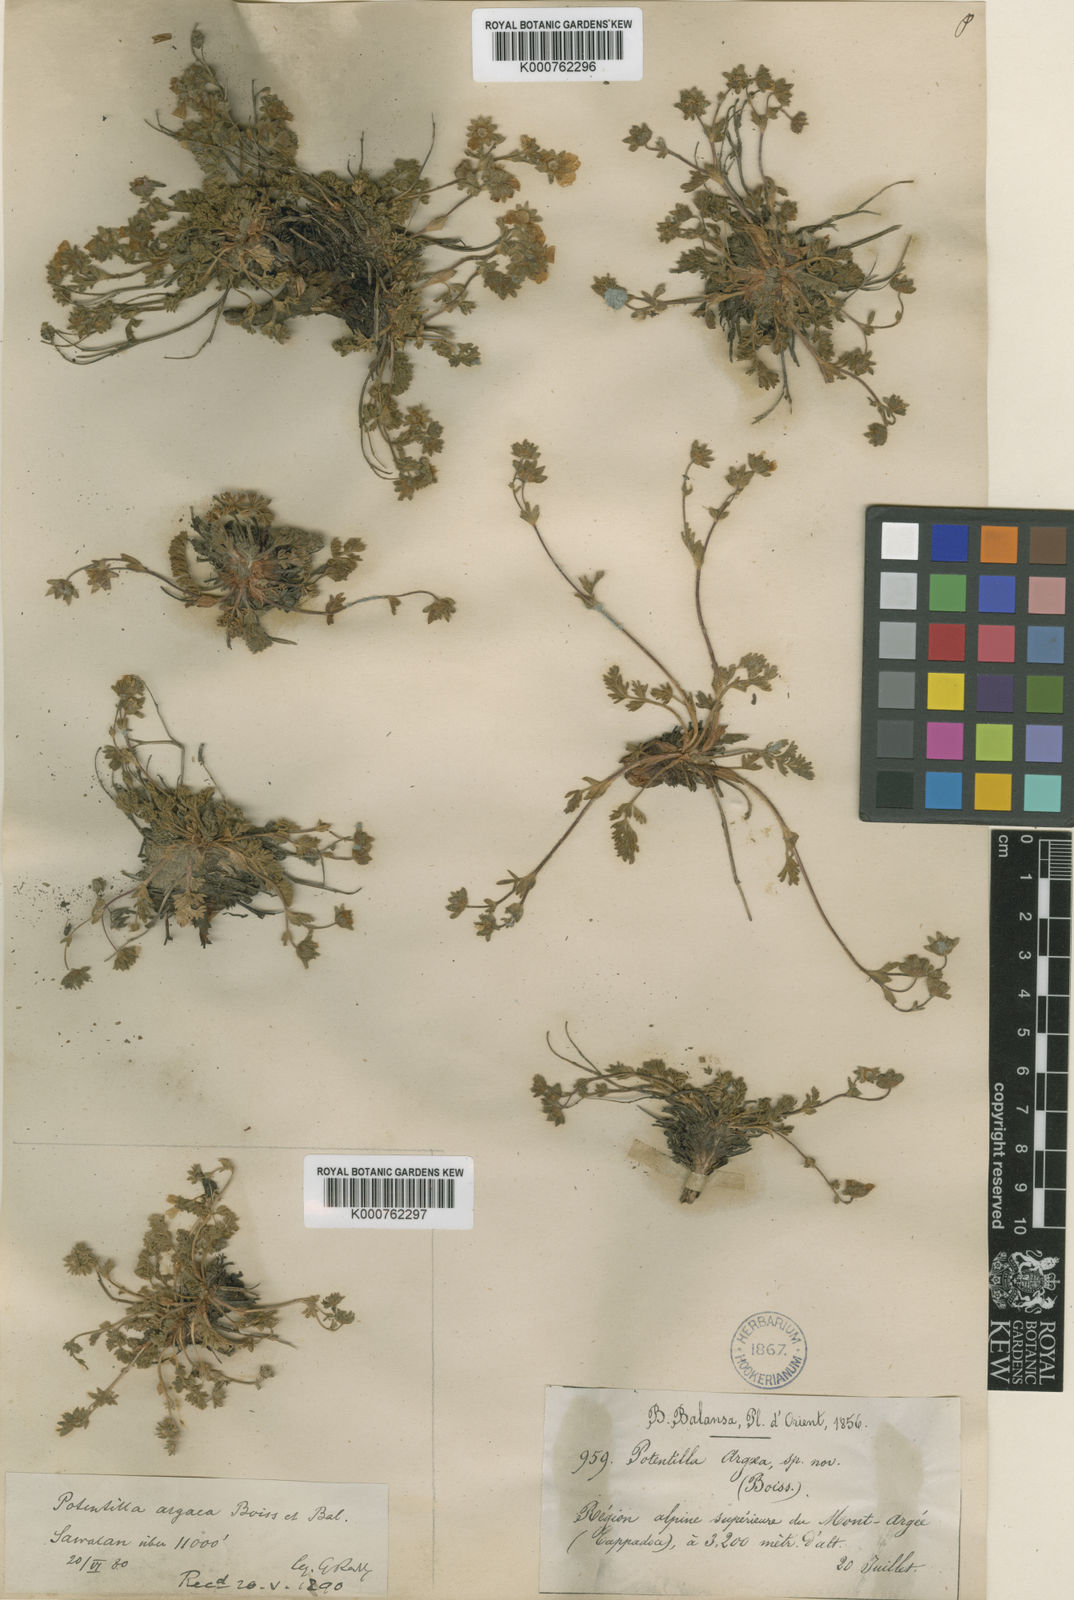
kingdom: Plantae
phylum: Tracheophyta
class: Magnoliopsida
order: Rosales
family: Rosaceae
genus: Potentilla
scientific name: Potentilla argaea
